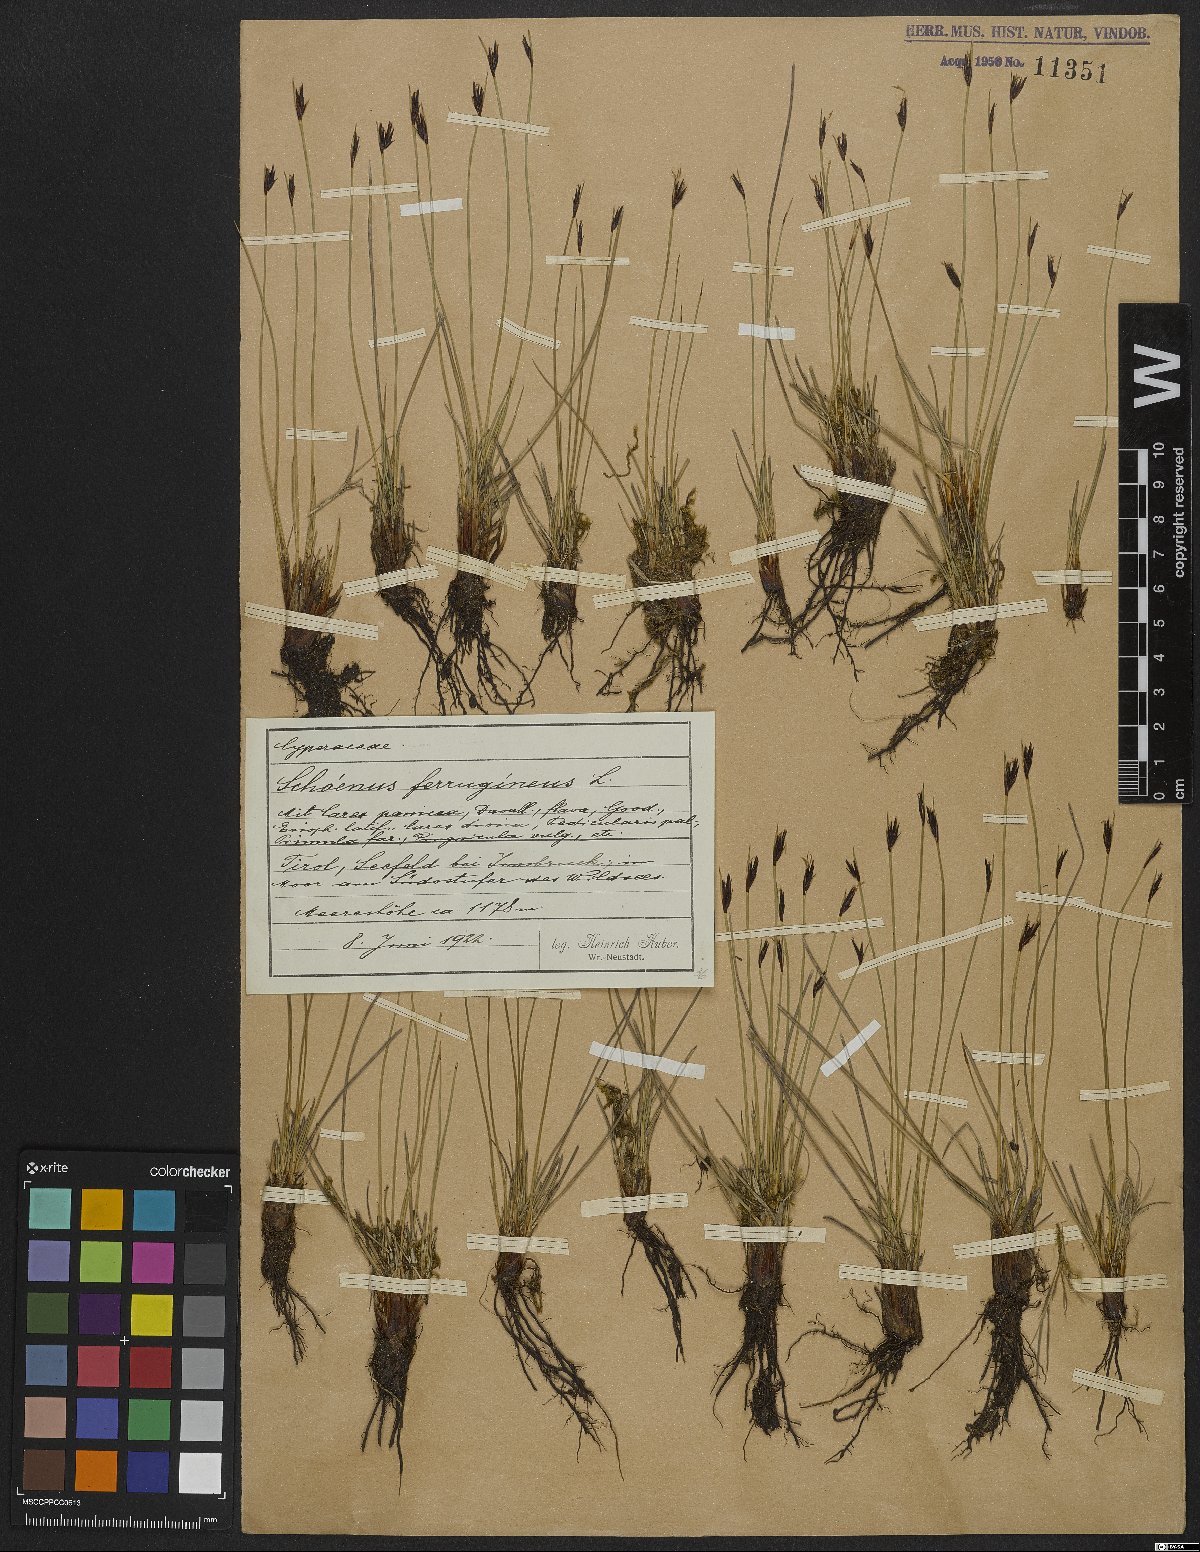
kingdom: Plantae
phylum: Tracheophyta
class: Liliopsida
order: Poales
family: Cyperaceae
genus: Schoenus
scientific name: Schoenus ferrugineus
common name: Brown bog-rush
